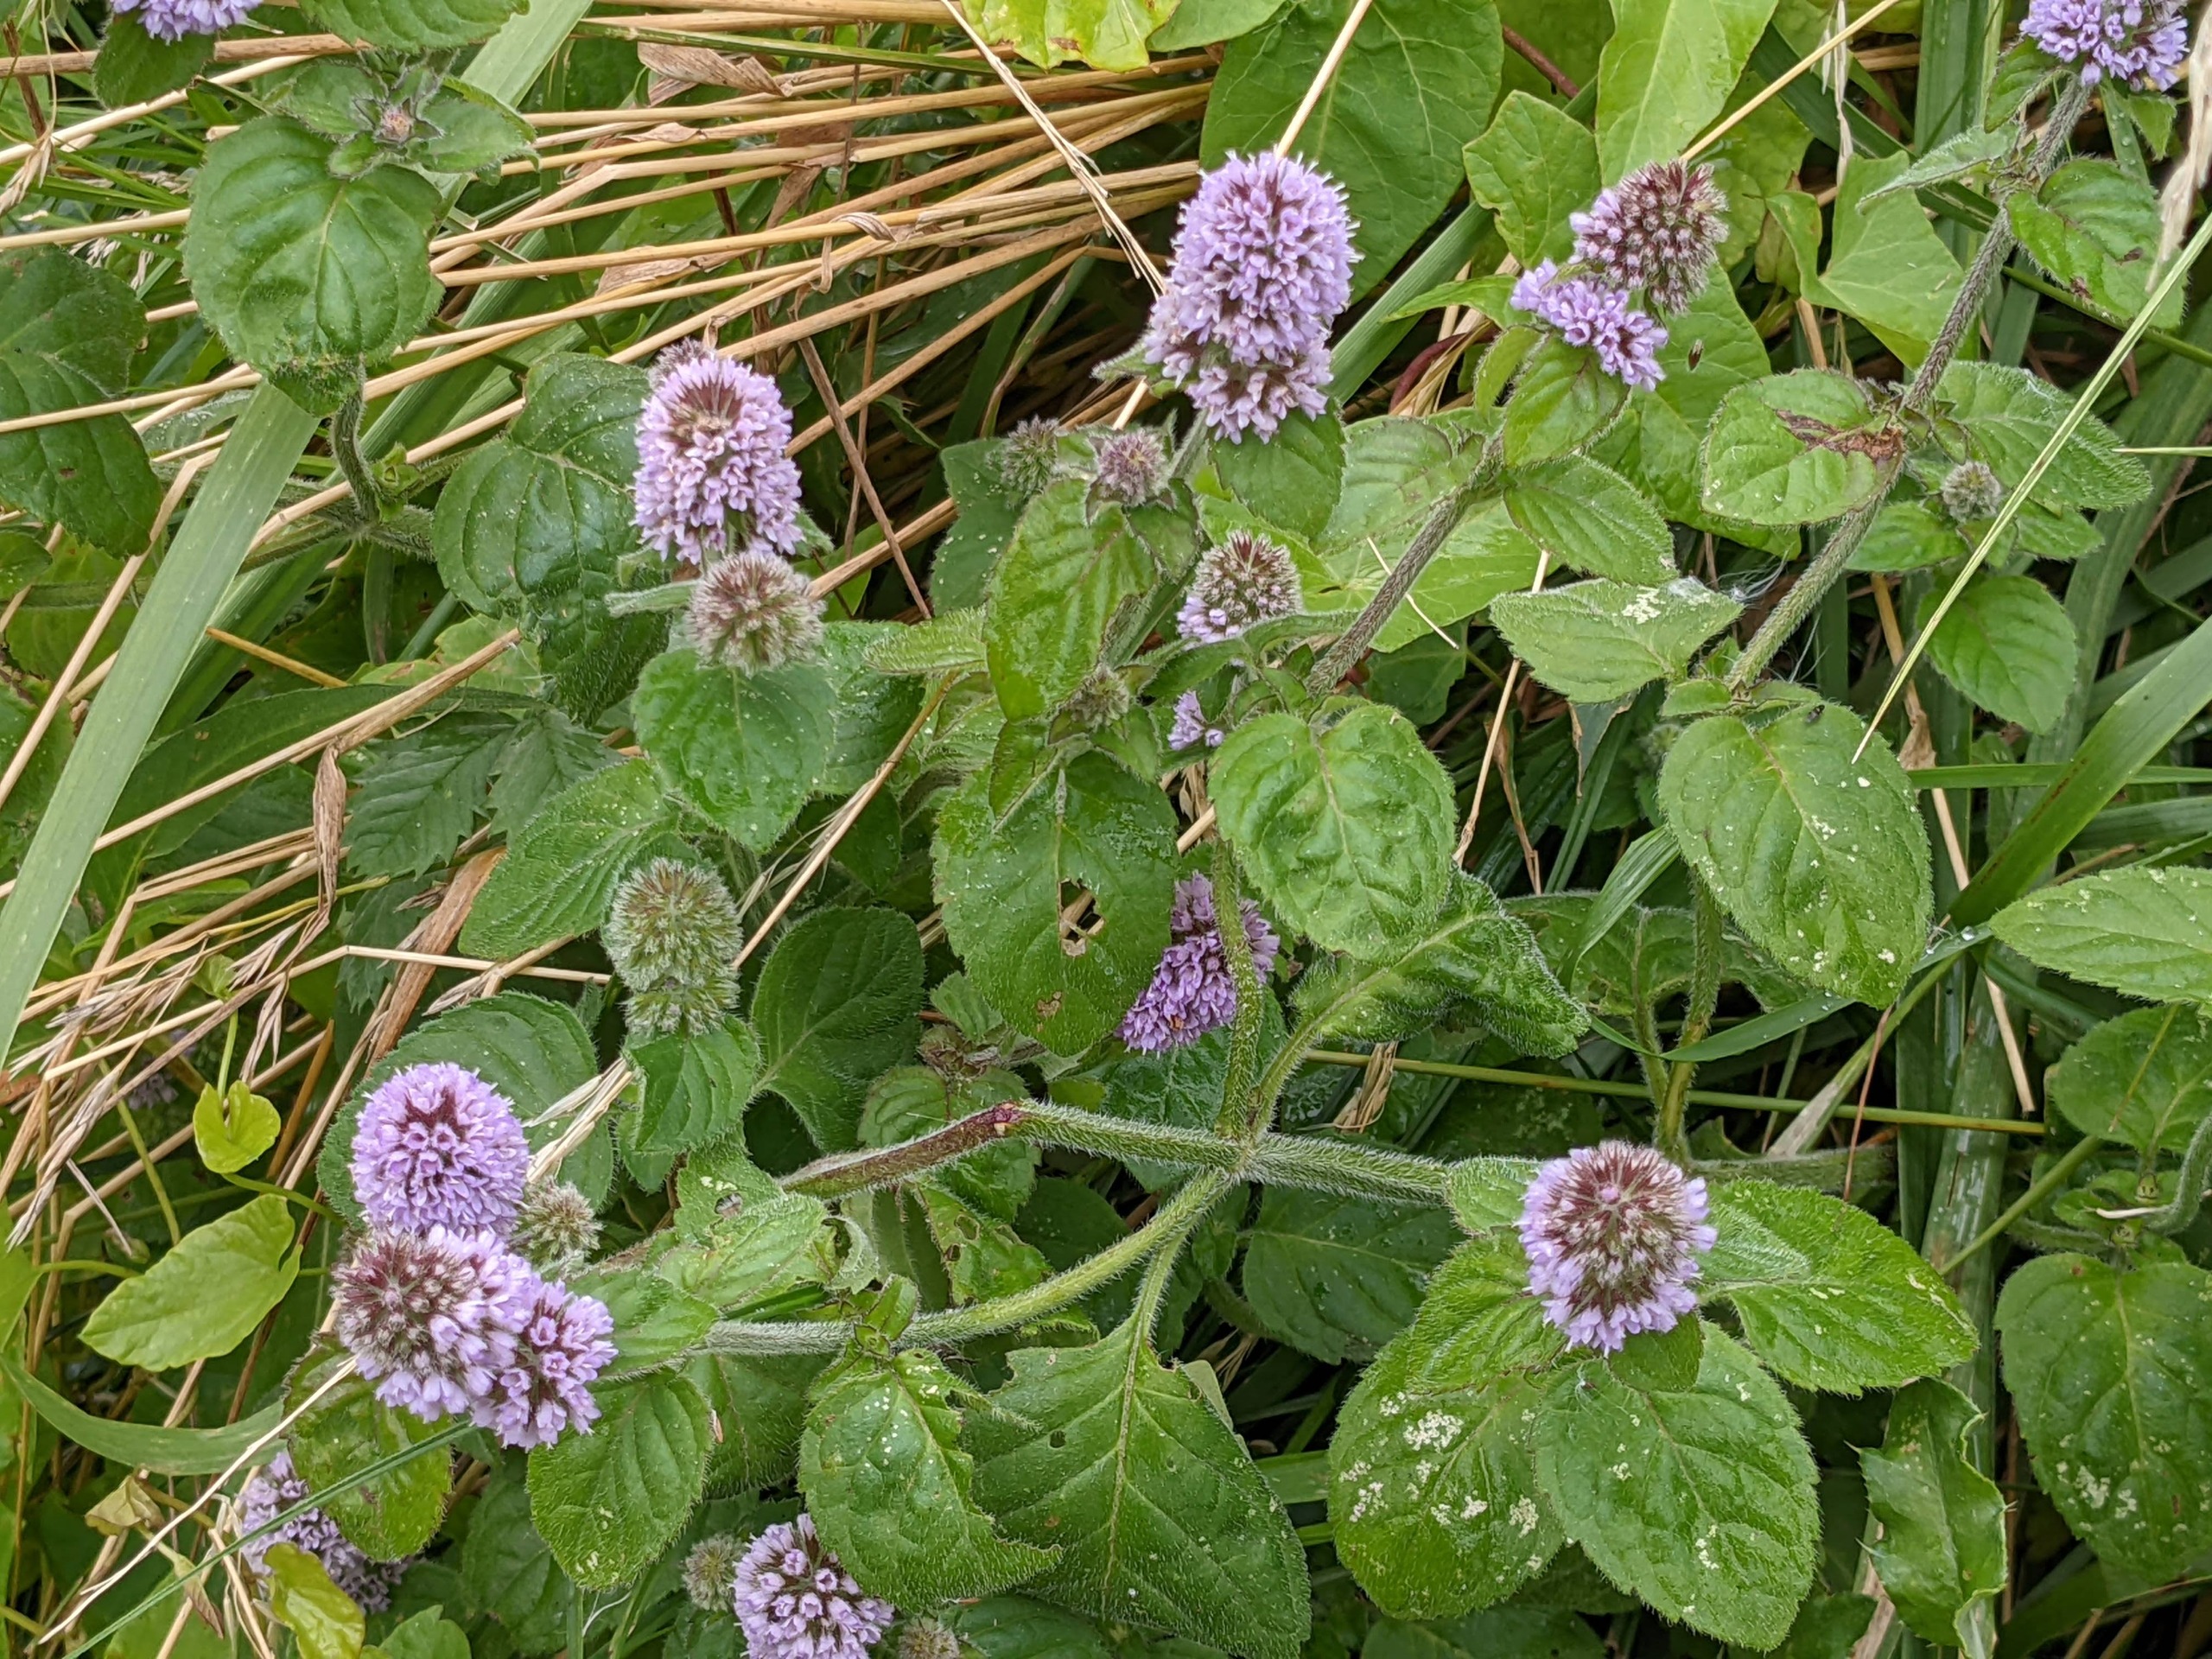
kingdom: Plantae
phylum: Tracheophyta
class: Magnoliopsida
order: Lamiales
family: Lamiaceae
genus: Mentha
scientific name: Mentha aquatica
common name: Vand-mynte
